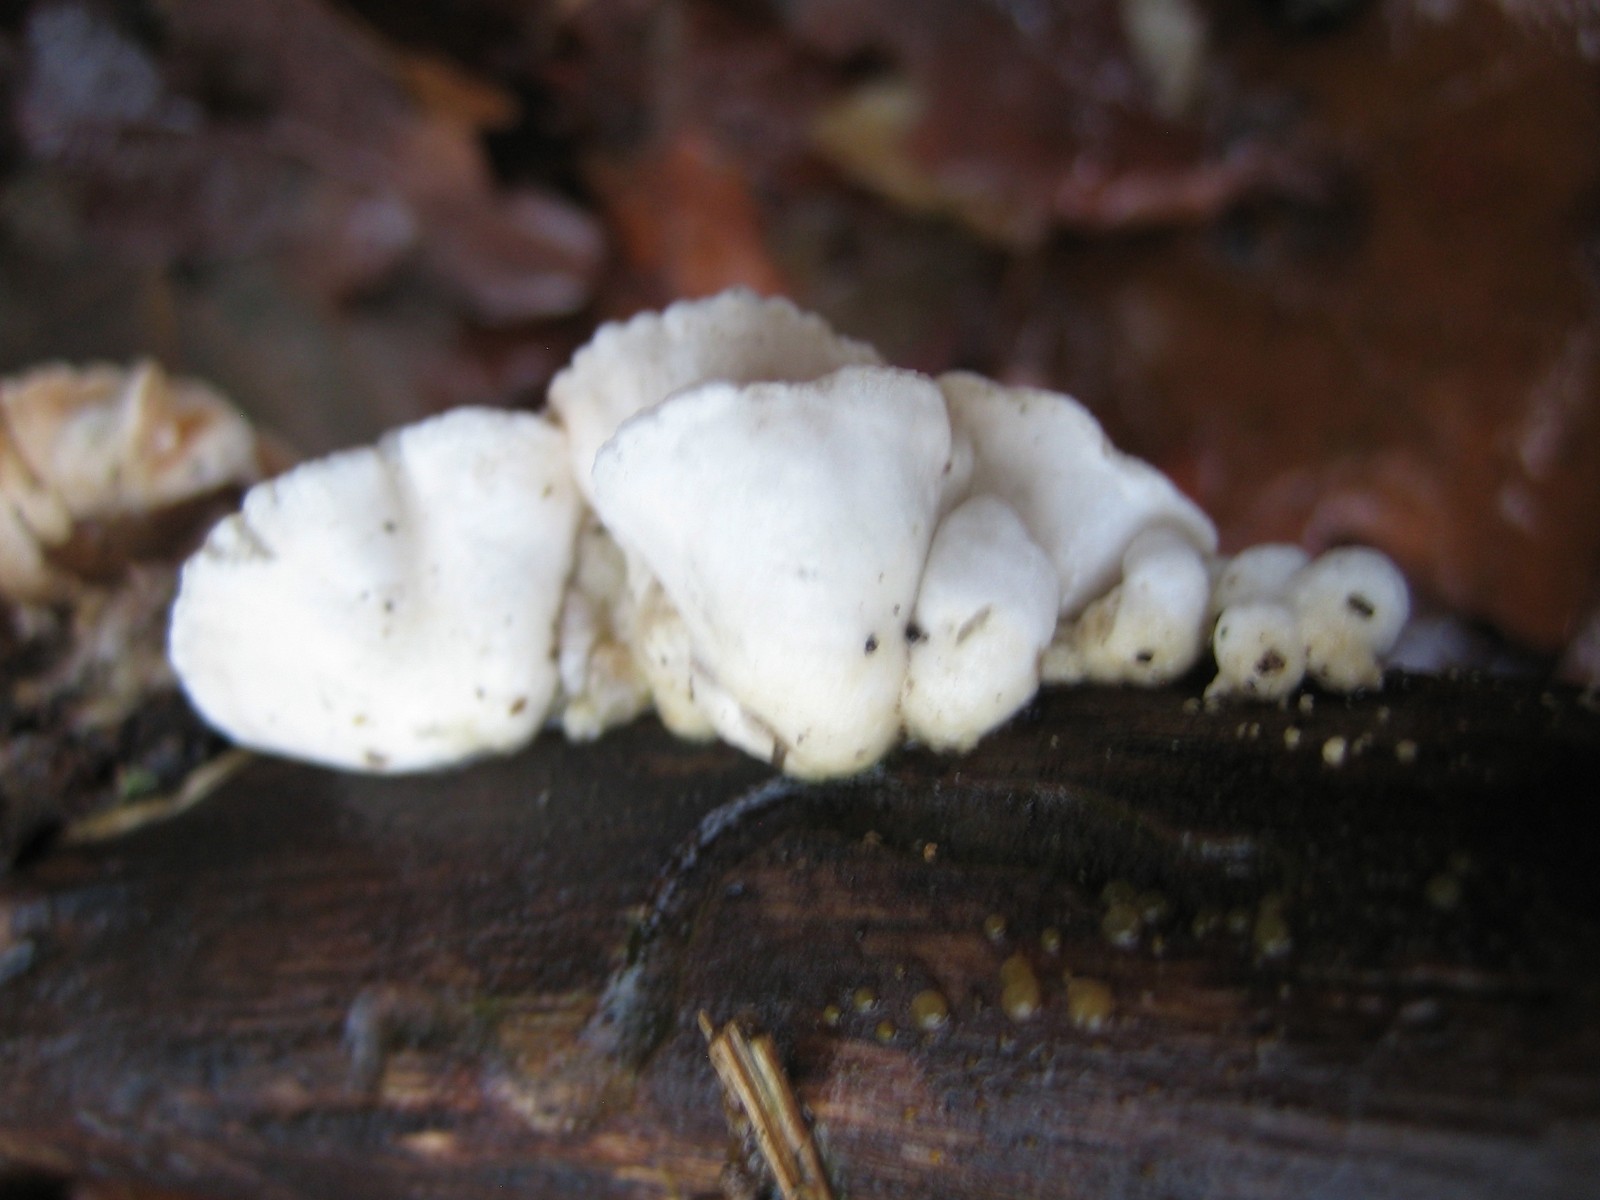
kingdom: Fungi
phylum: Basidiomycota
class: Agaricomycetes
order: Agaricales
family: Crepidotaceae
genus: Crepidotus
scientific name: Crepidotus
